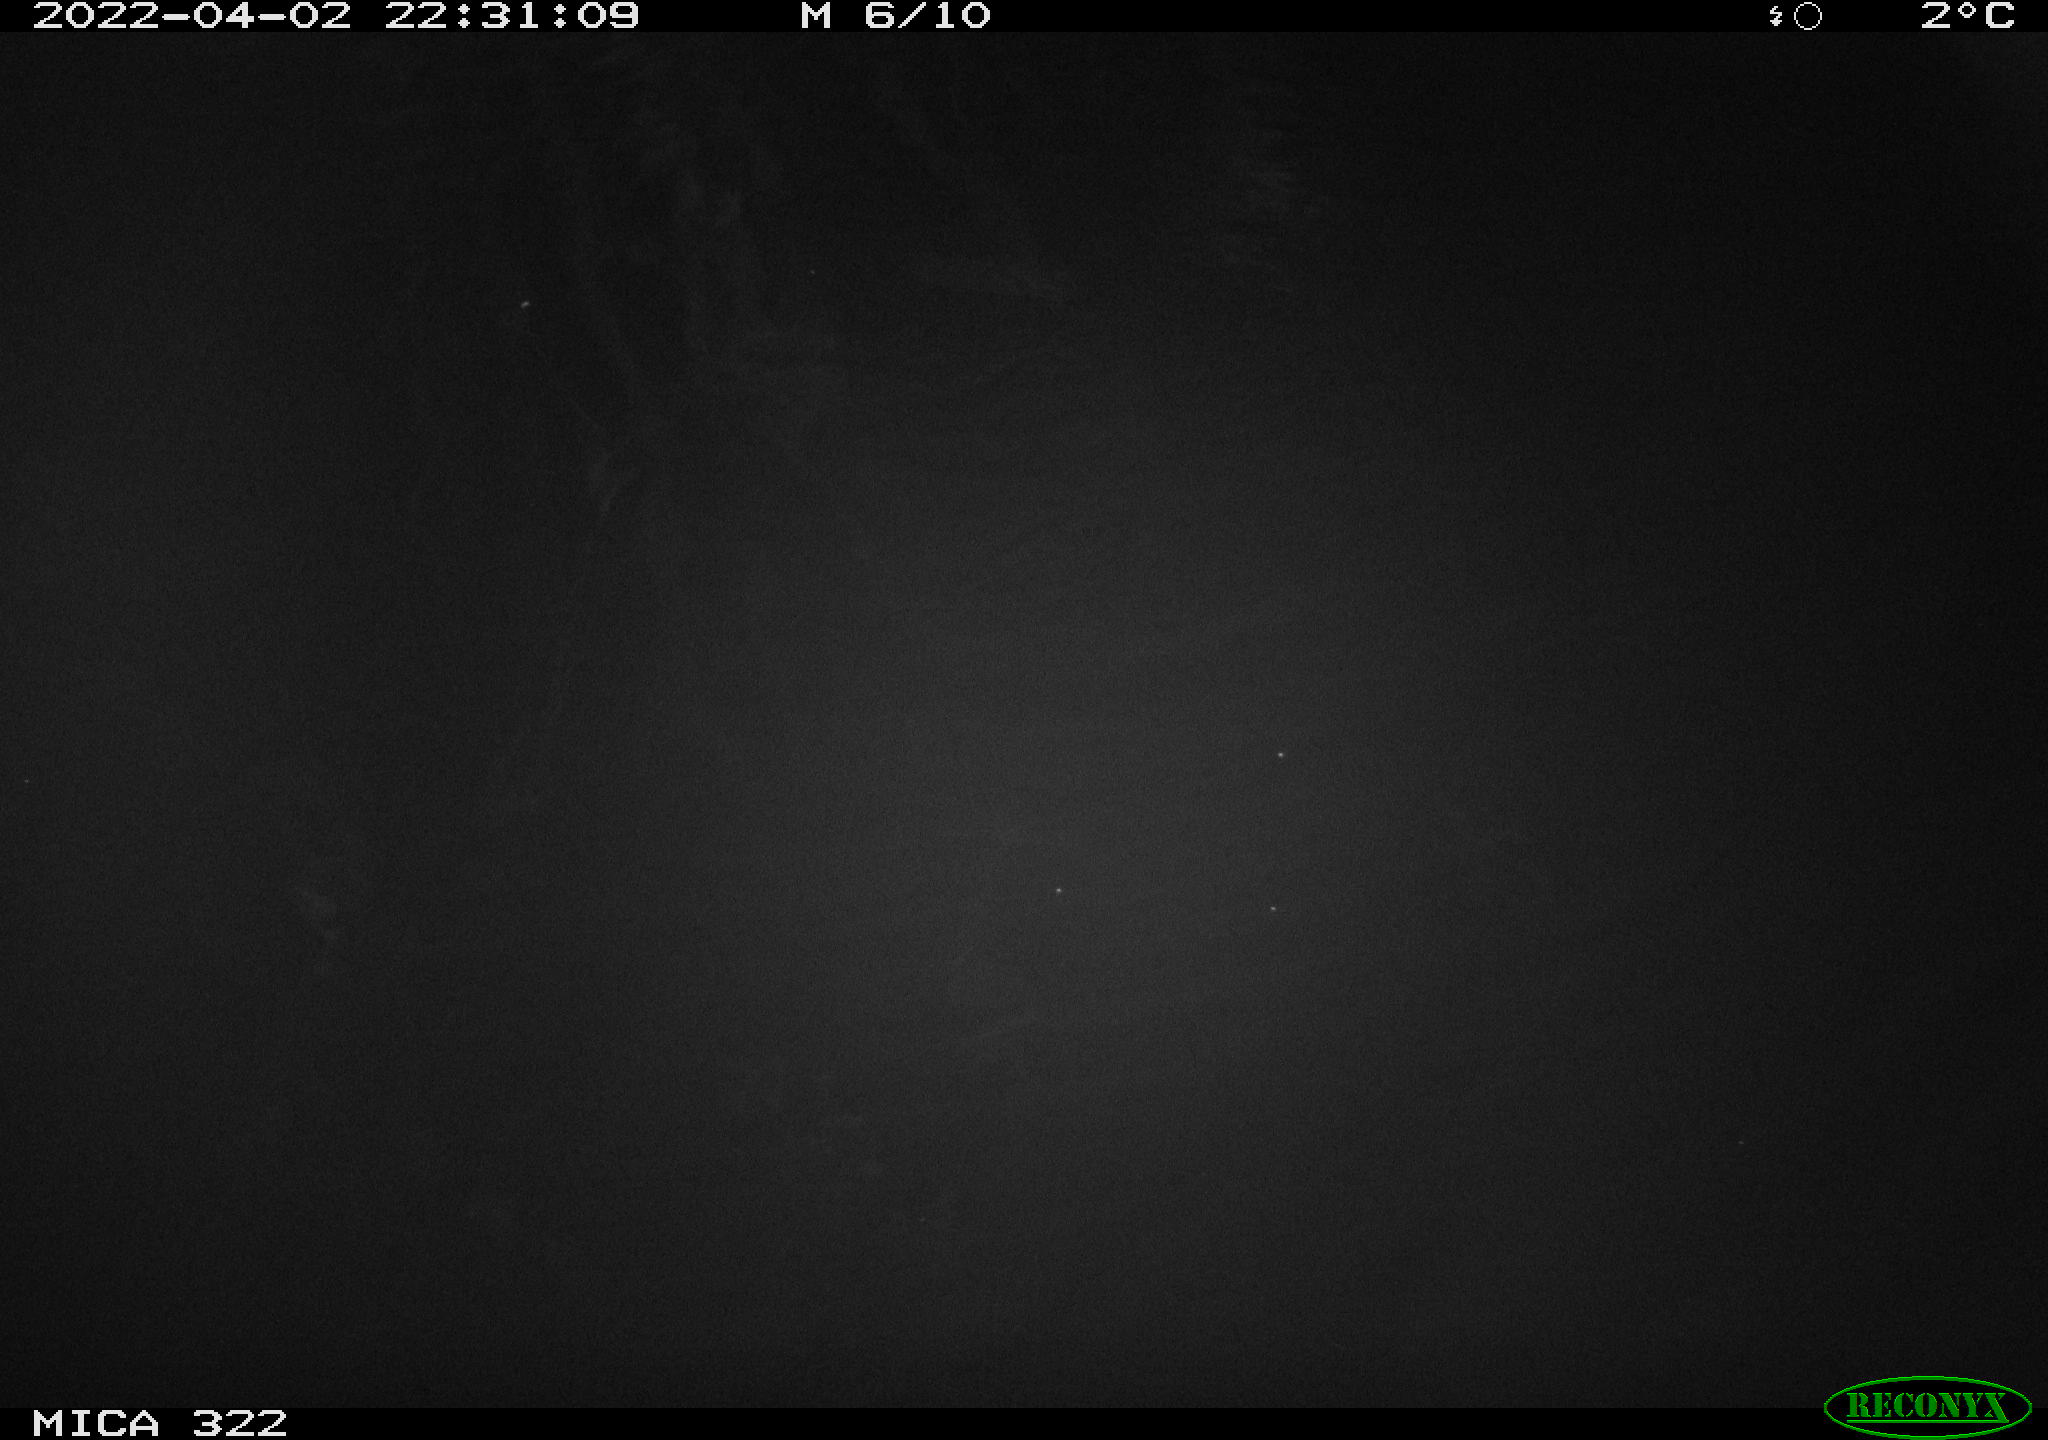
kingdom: Animalia
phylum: Chordata
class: Aves
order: Anseriformes
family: Anatidae
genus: Anas
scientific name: Anas platyrhynchos
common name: Mallard
